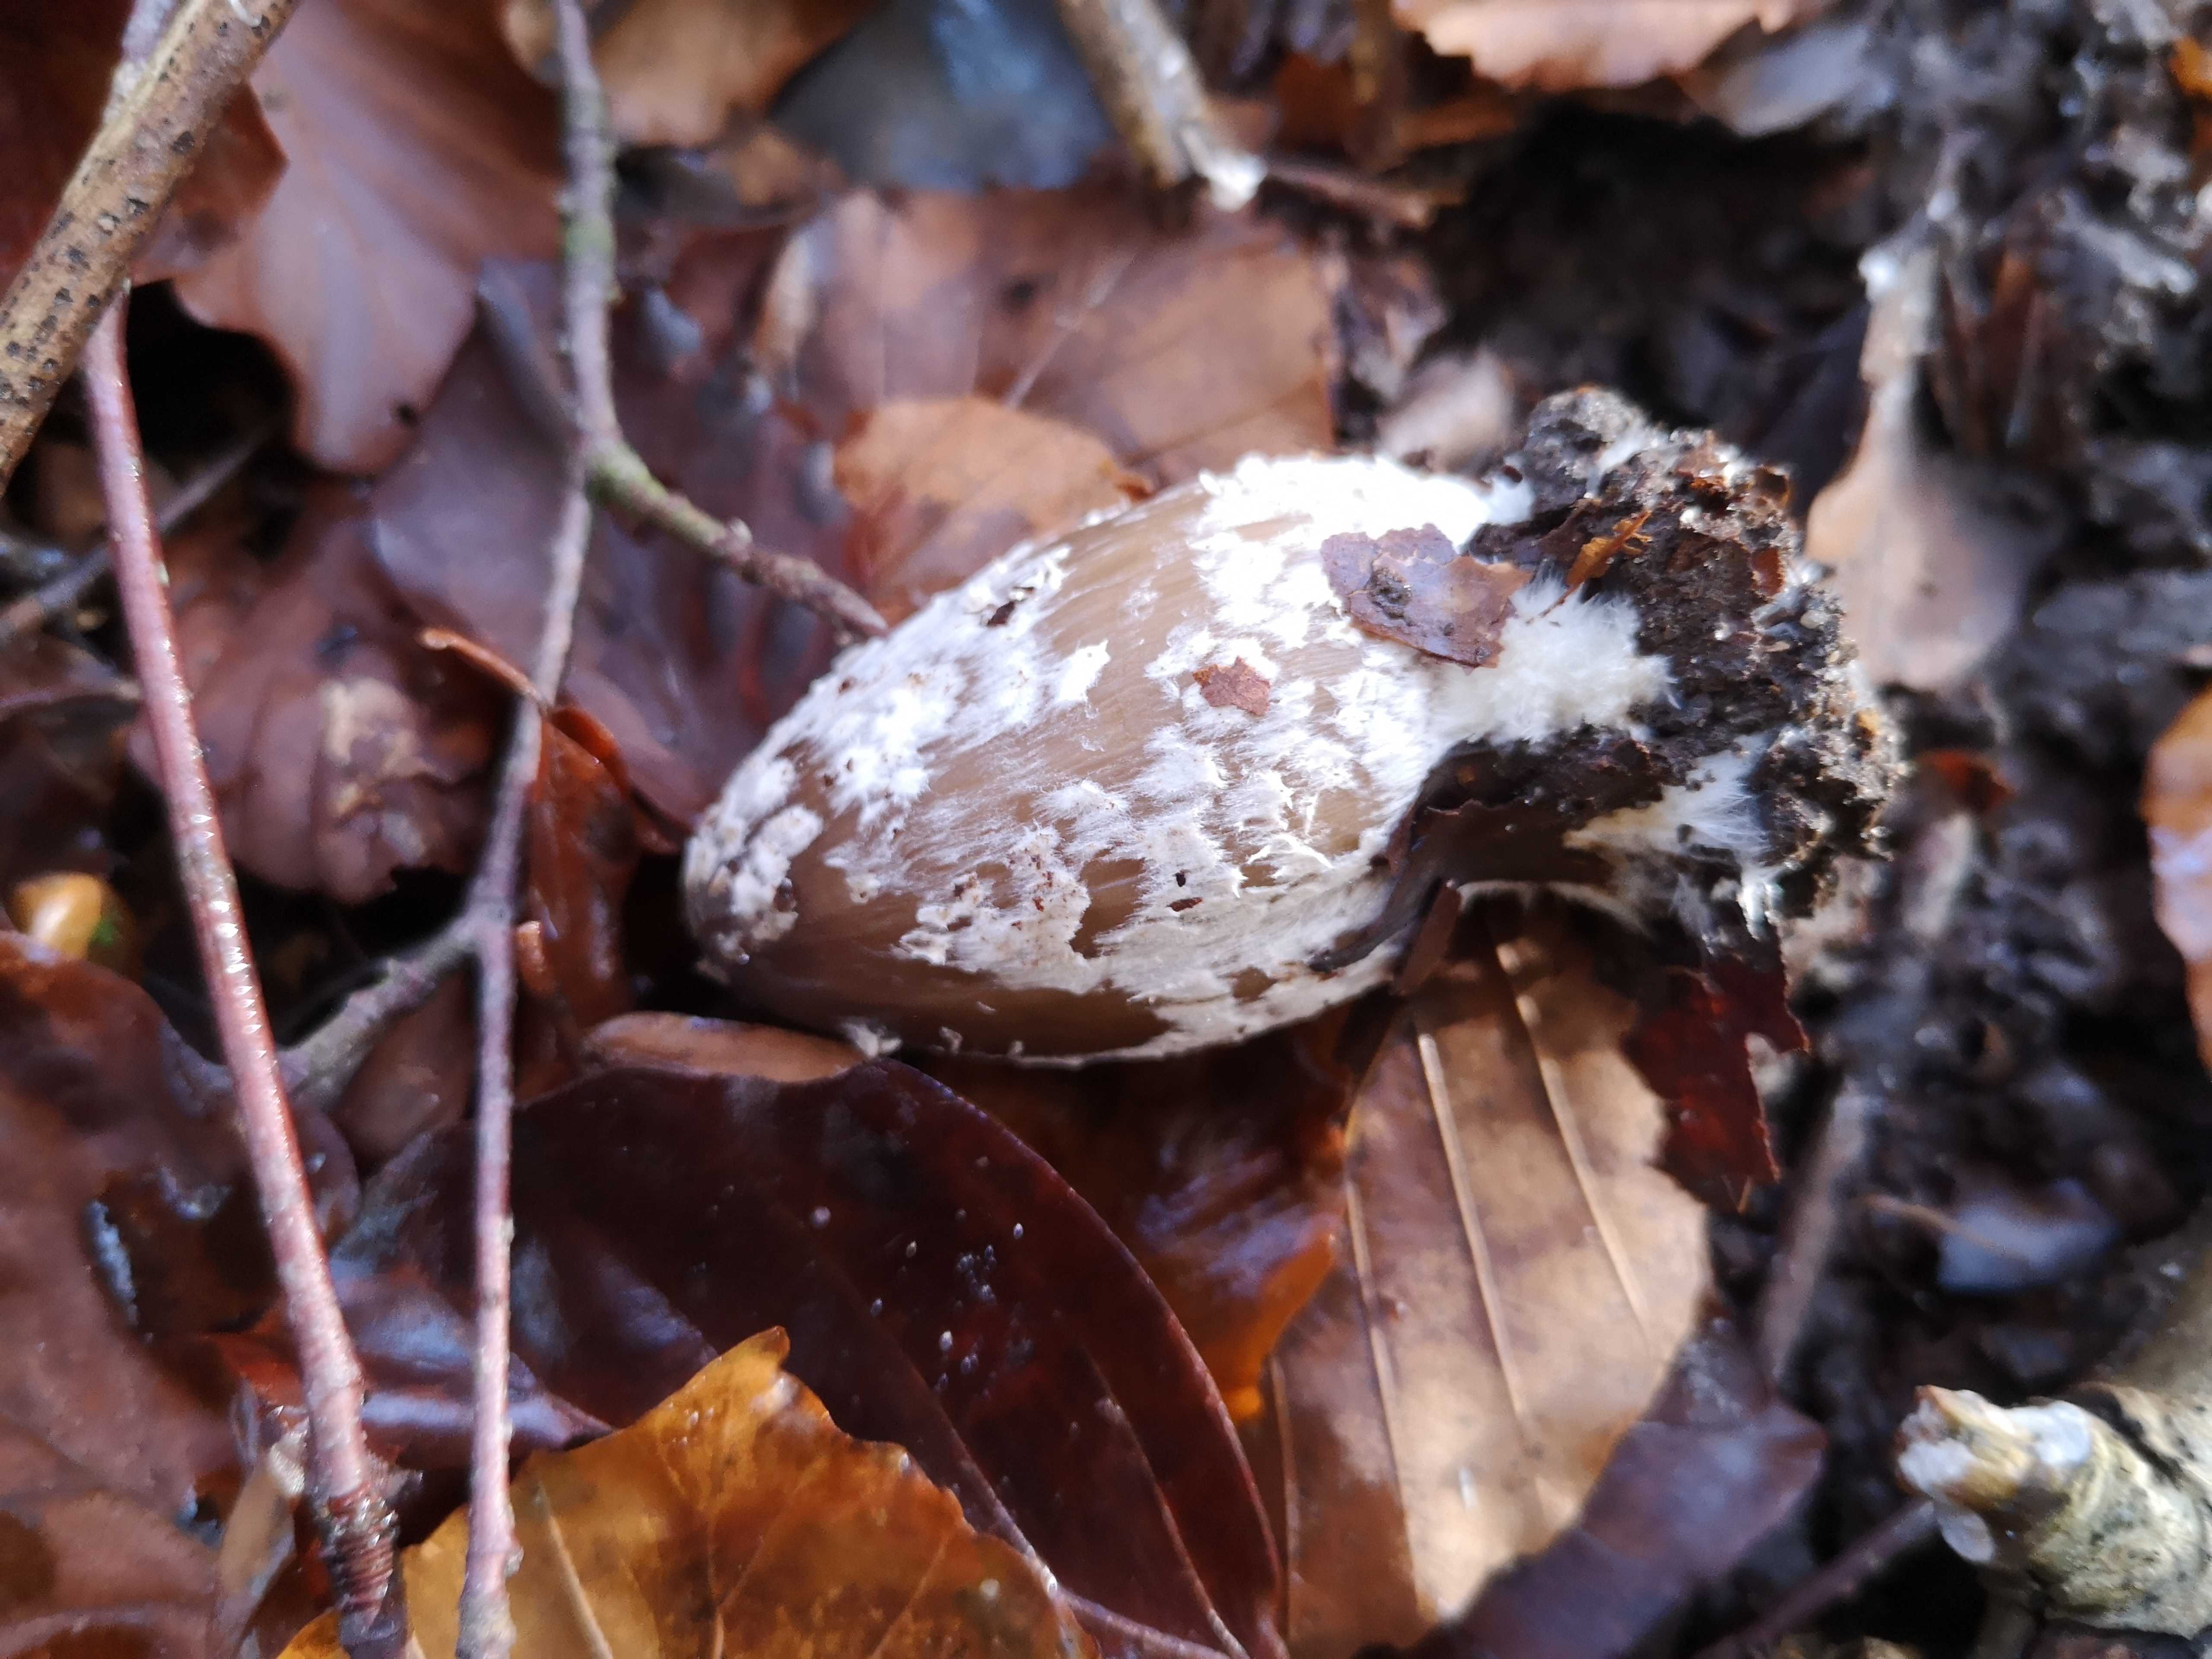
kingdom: Fungi
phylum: Basidiomycota
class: Agaricomycetes
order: Agaricales
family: Psathyrellaceae
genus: Coprinopsis
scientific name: Coprinopsis picacea
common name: skade-blækhat
